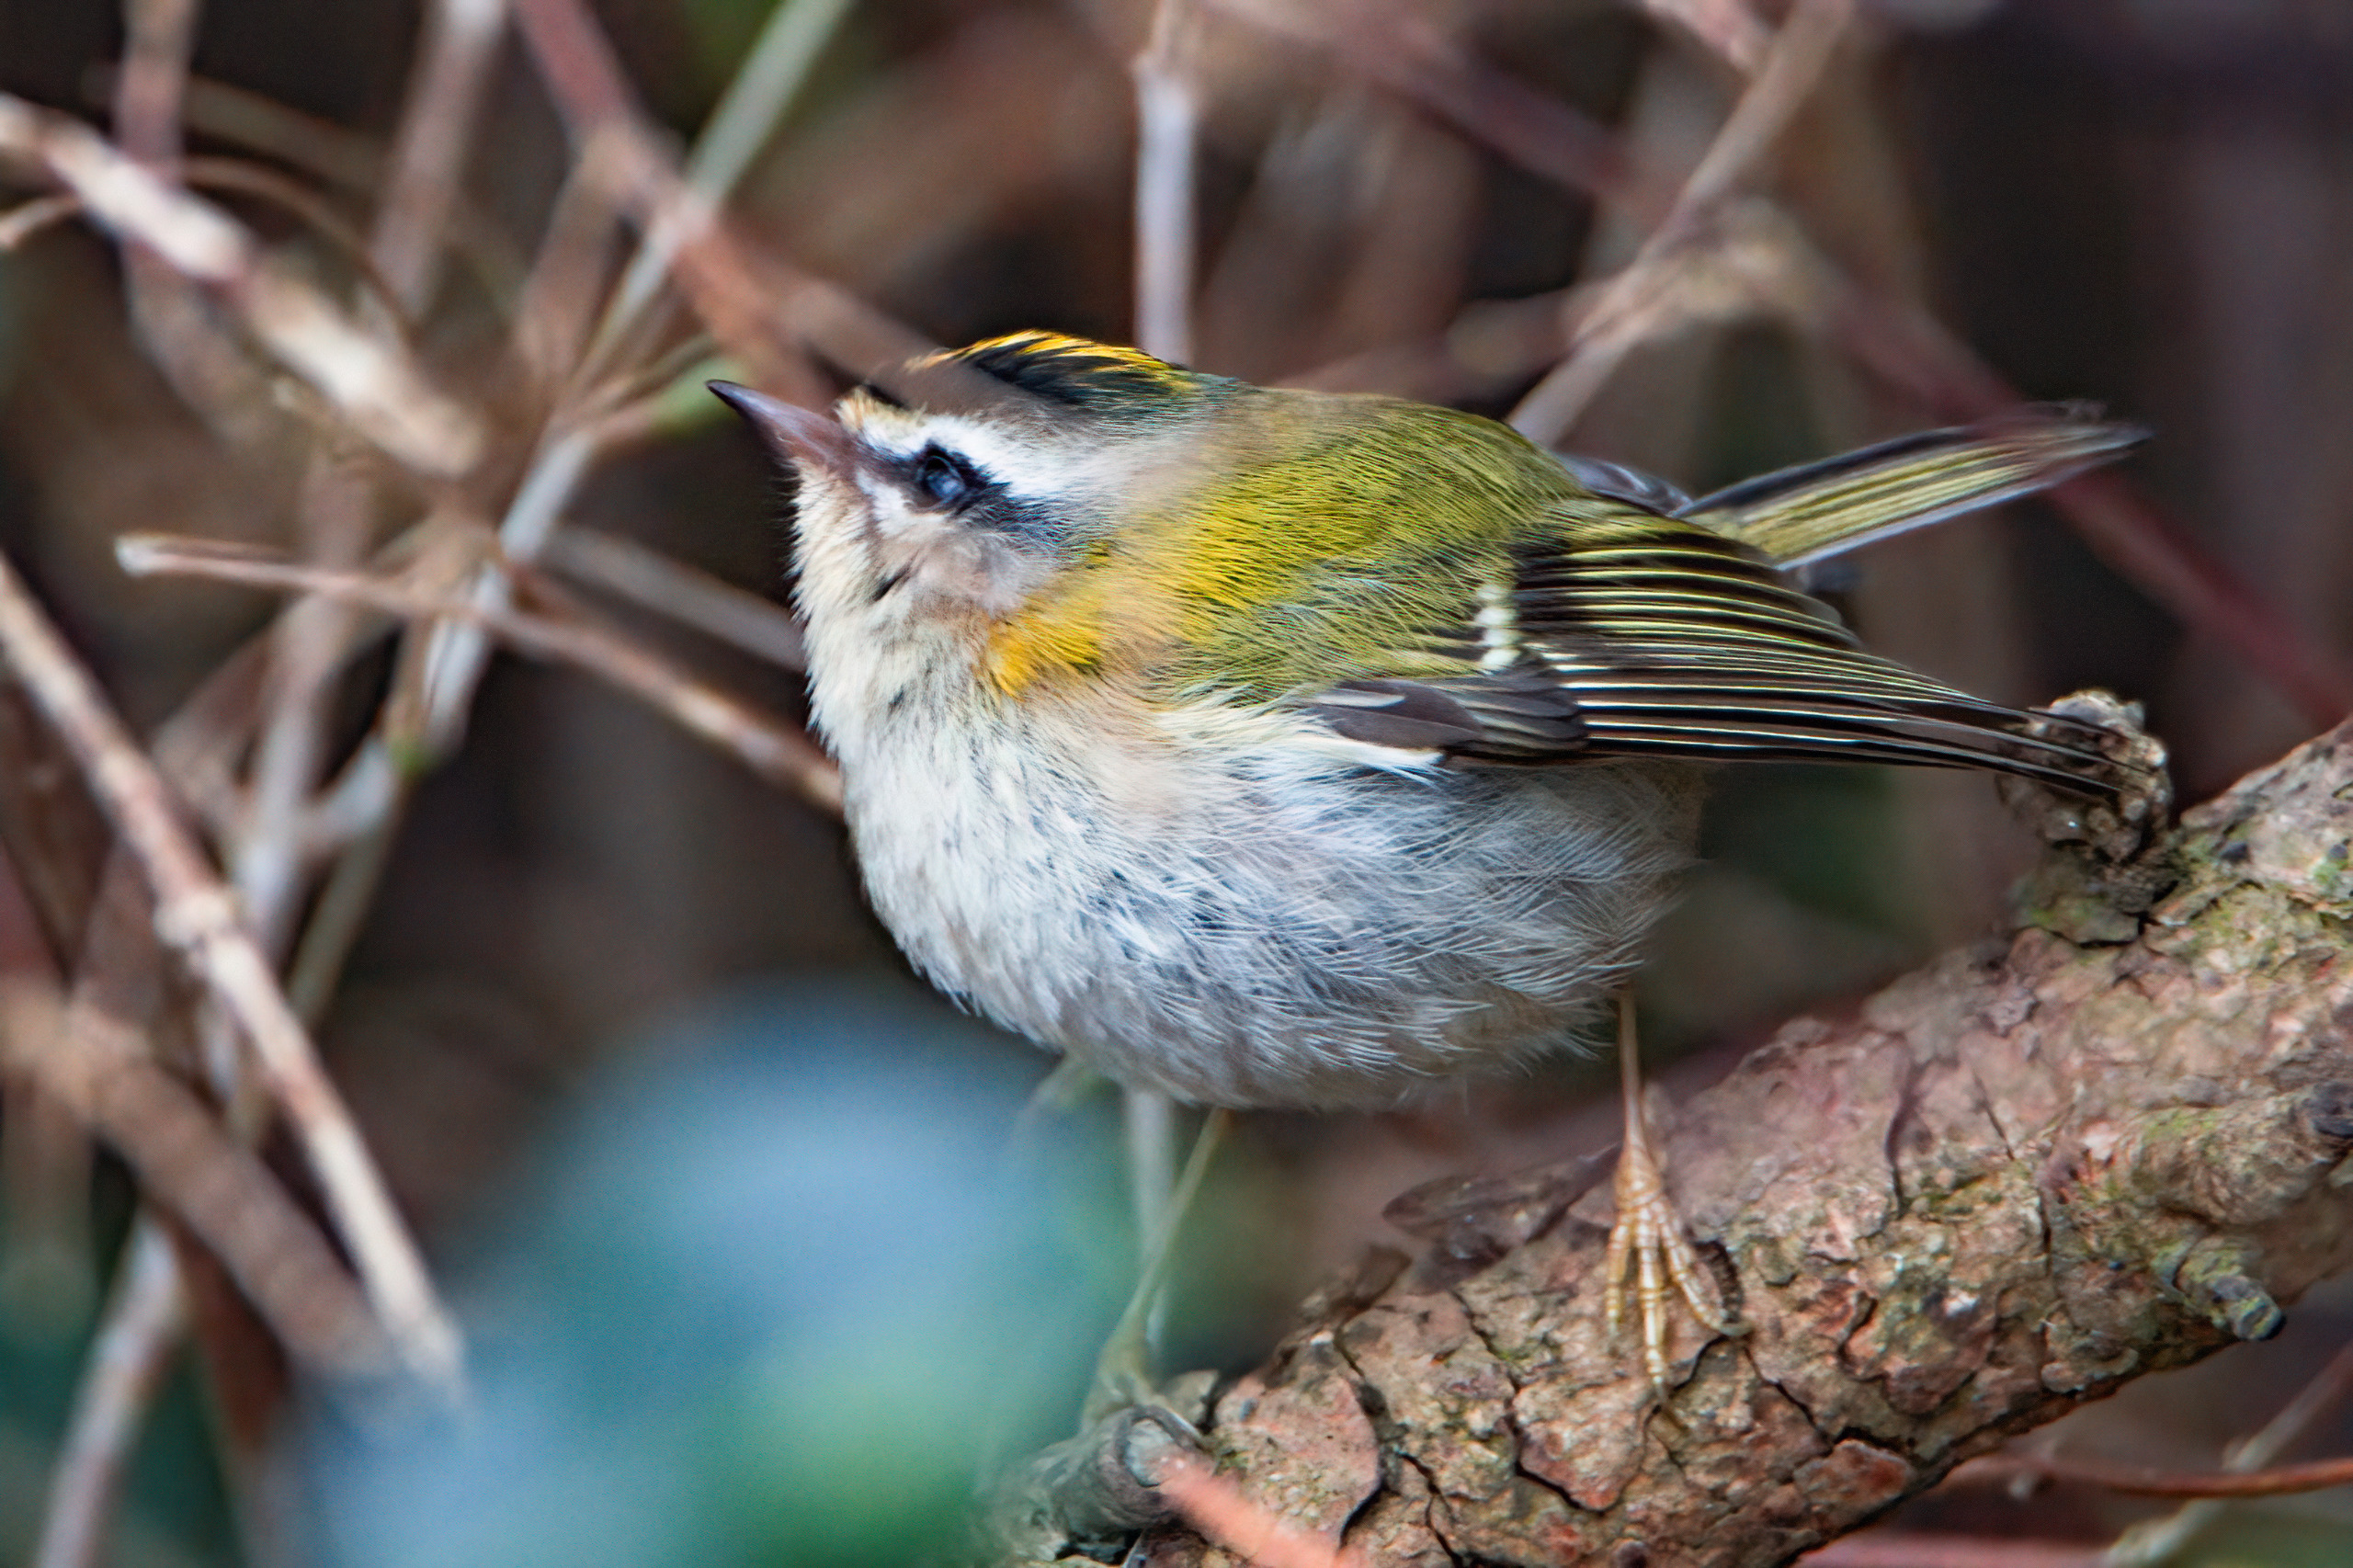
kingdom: Animalia
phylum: Chordata
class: Aves
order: Passeriformes
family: Regulidae
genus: Regulus
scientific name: Regulus ignicapilla
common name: Rødtoppet fuglekonge
